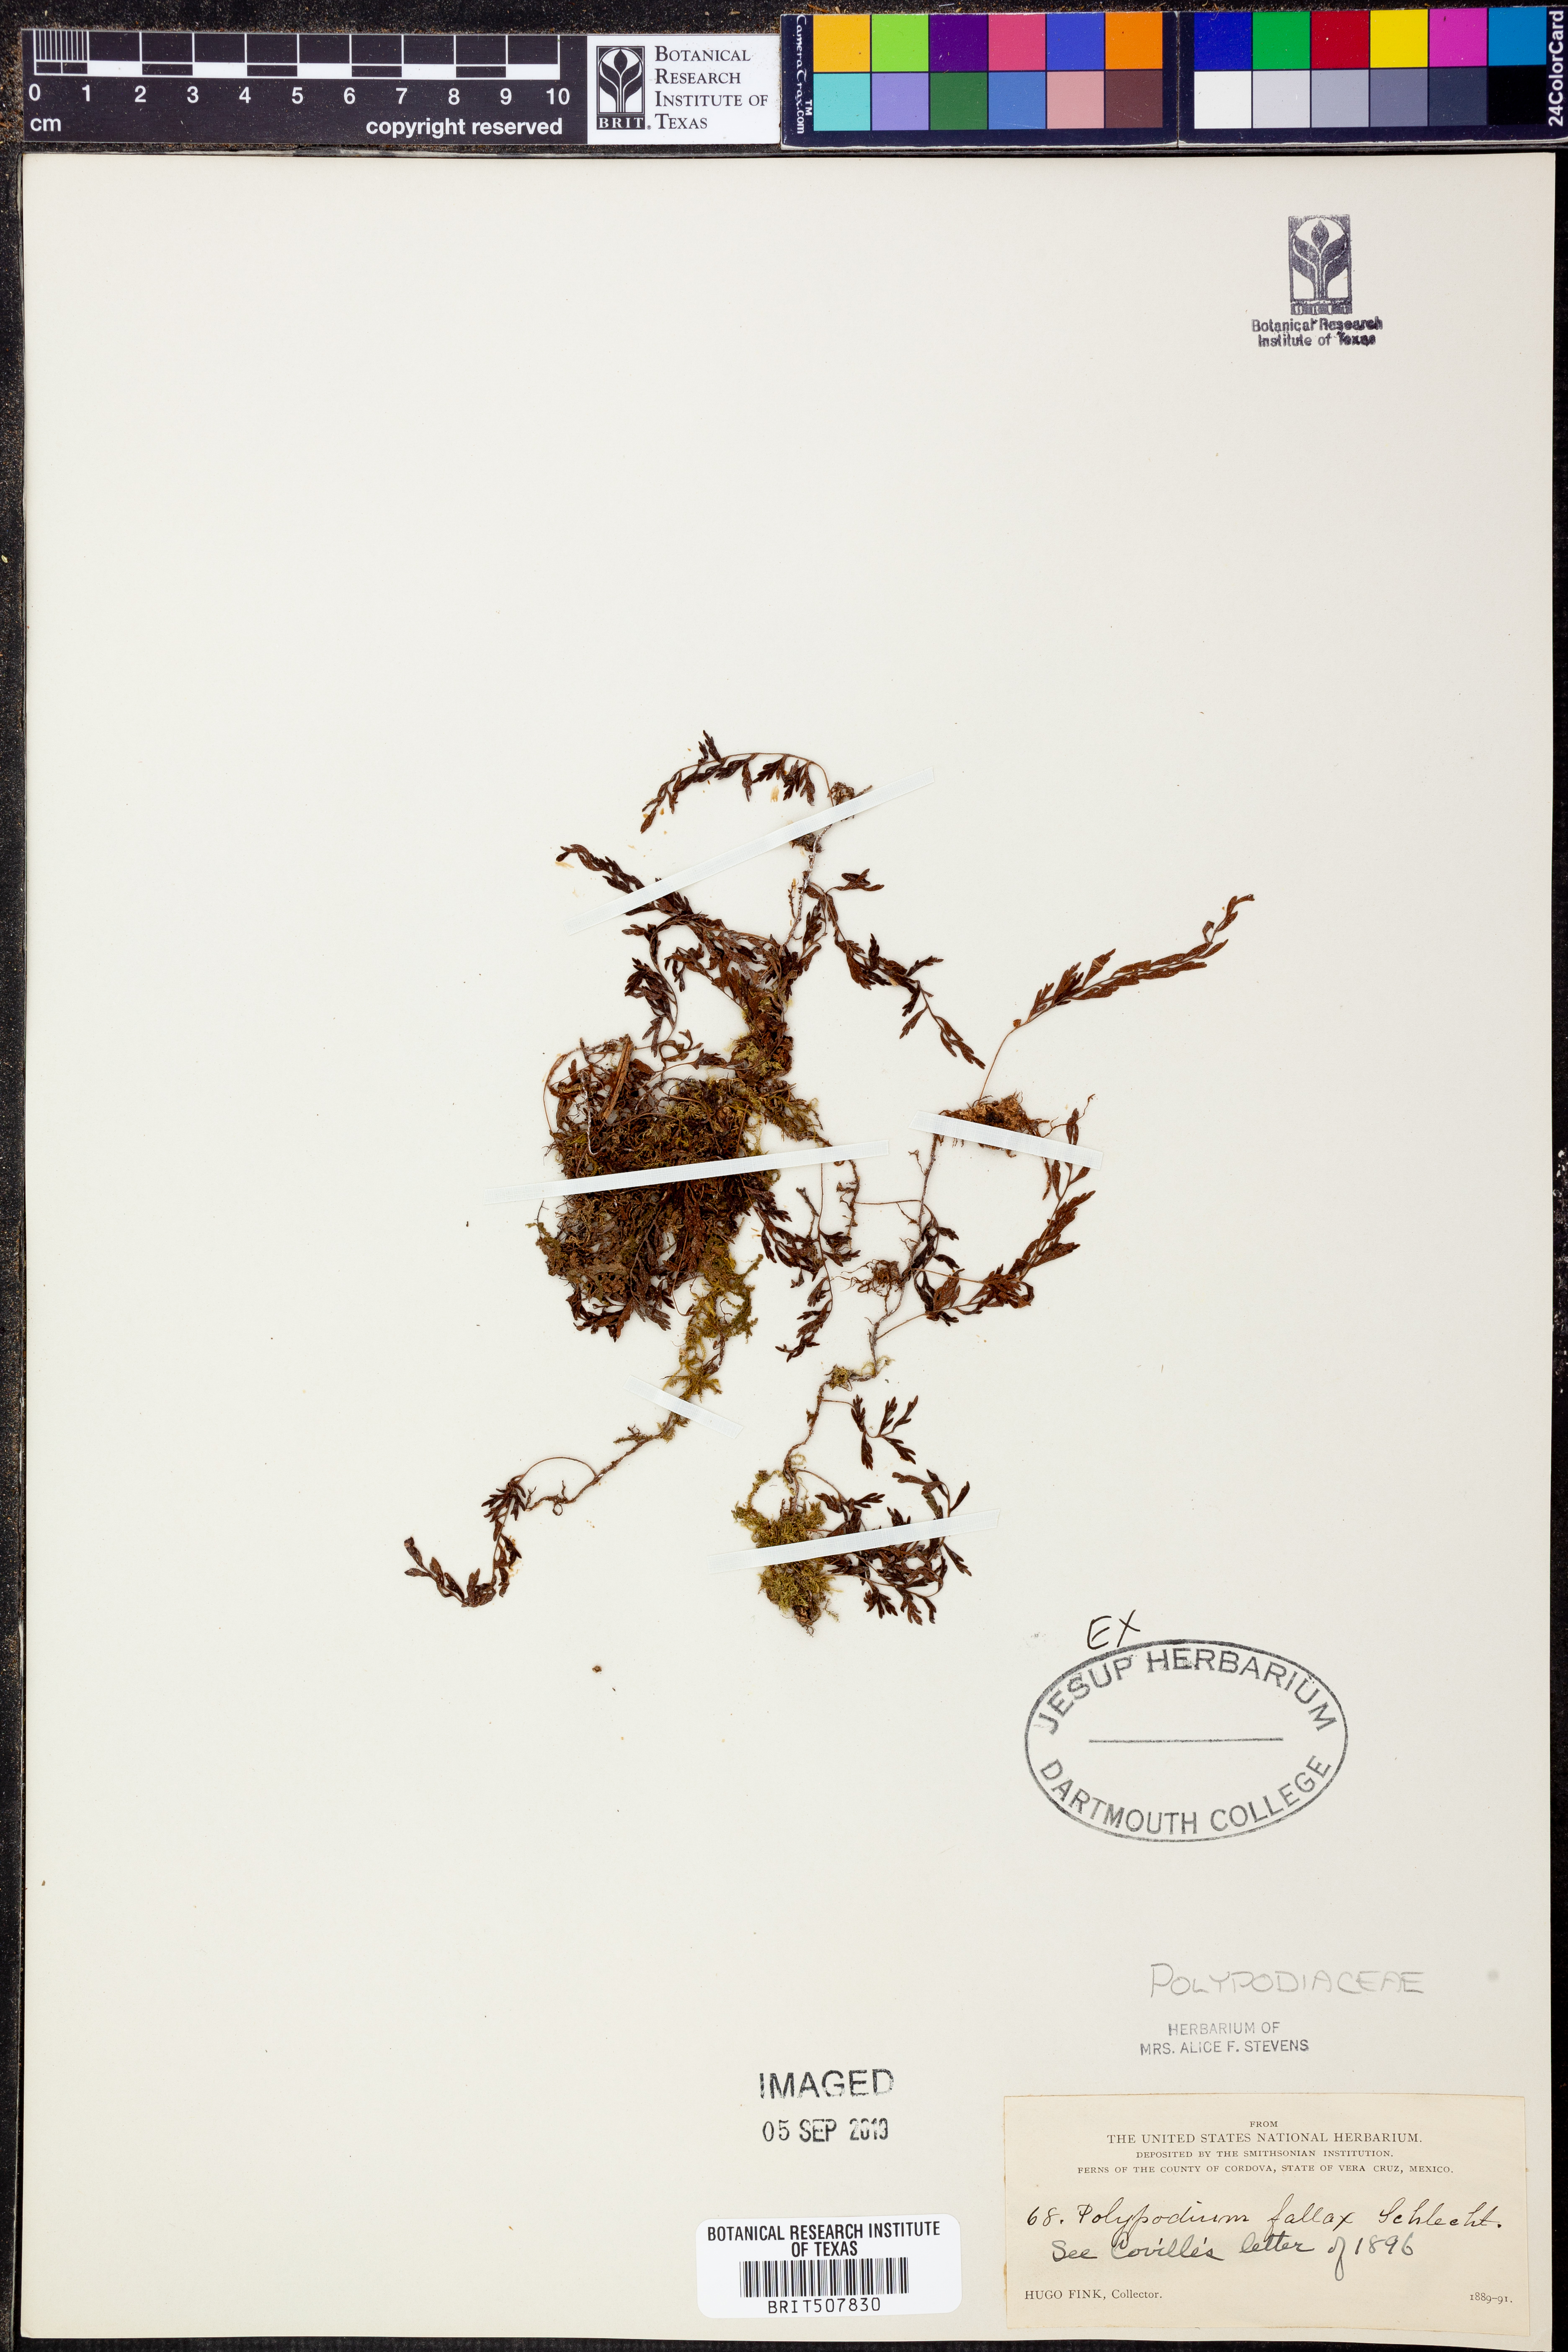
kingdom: Plantae
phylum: Tracheophyta
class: Polypodiopsida
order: Polypodiales
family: Polypodiaceae
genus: Pleopeltis
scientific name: Pleopeltis fallax
